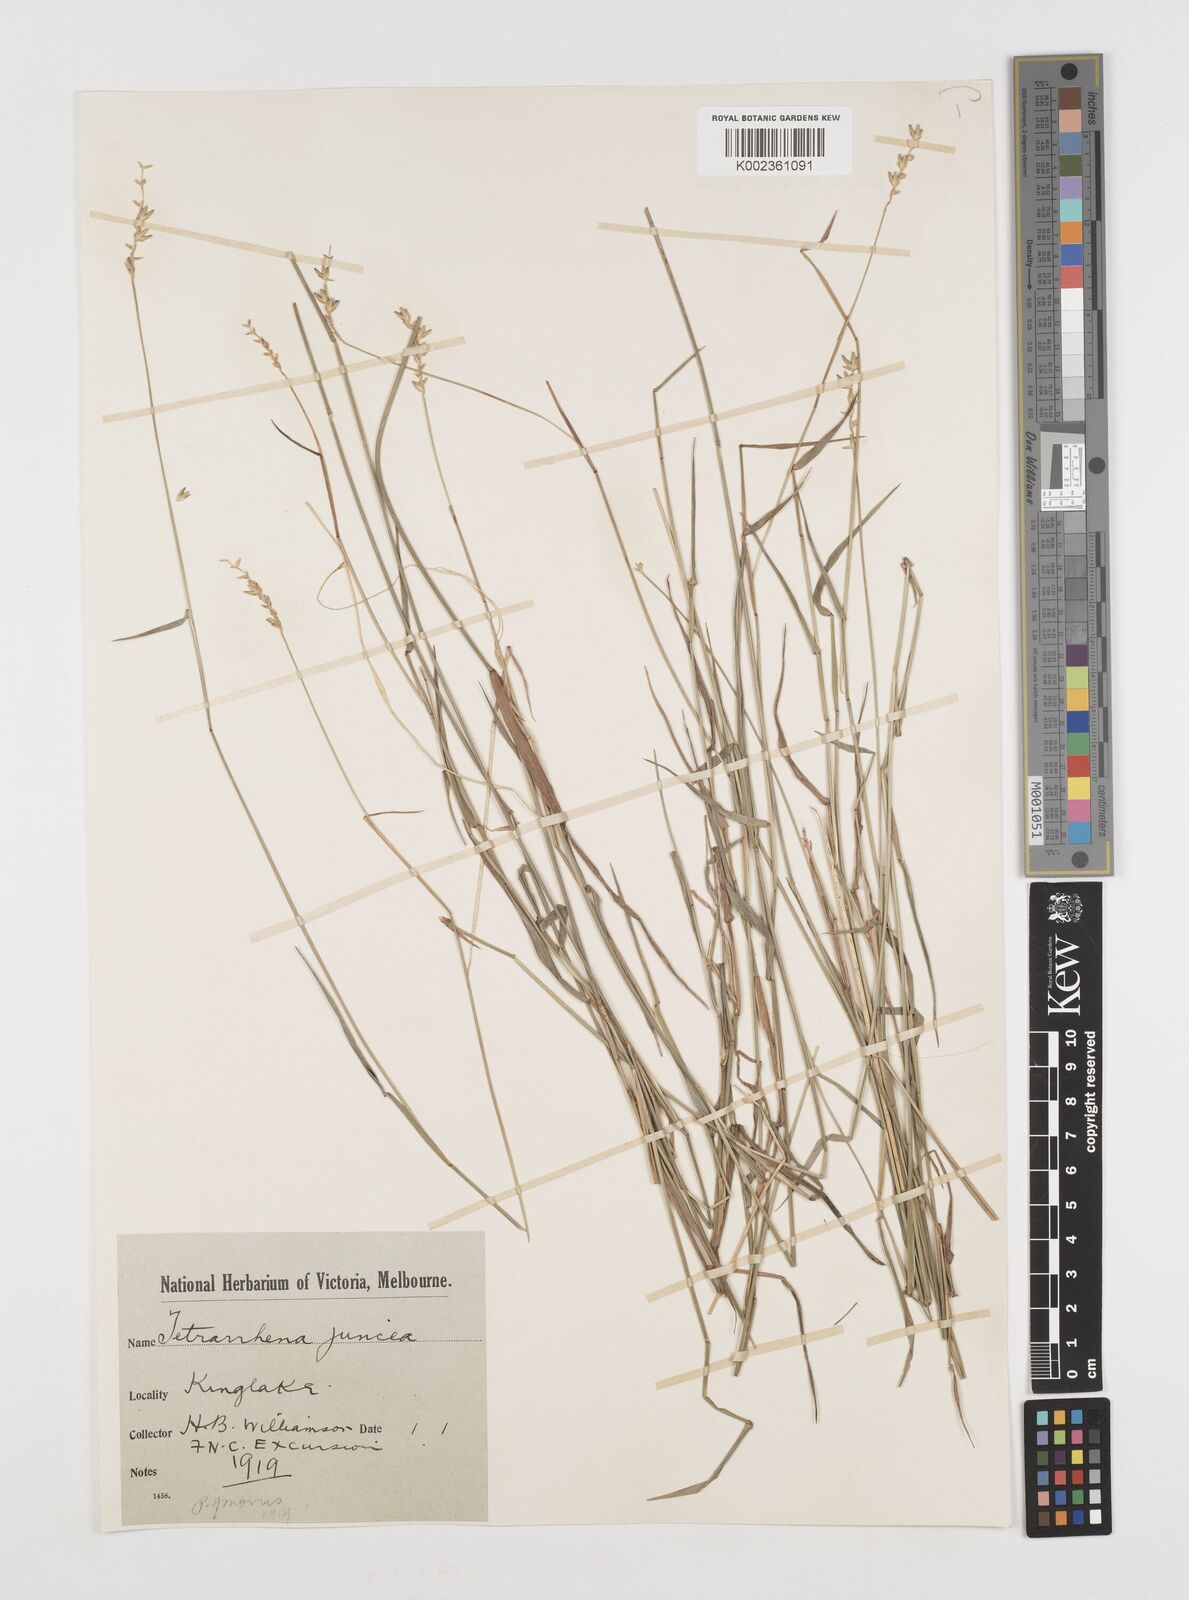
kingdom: Plantae
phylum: Tracheophyta
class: Liliopsida
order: Poales
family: Poaceae
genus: Tetrarrhena
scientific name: Tetrarrhena juncea
